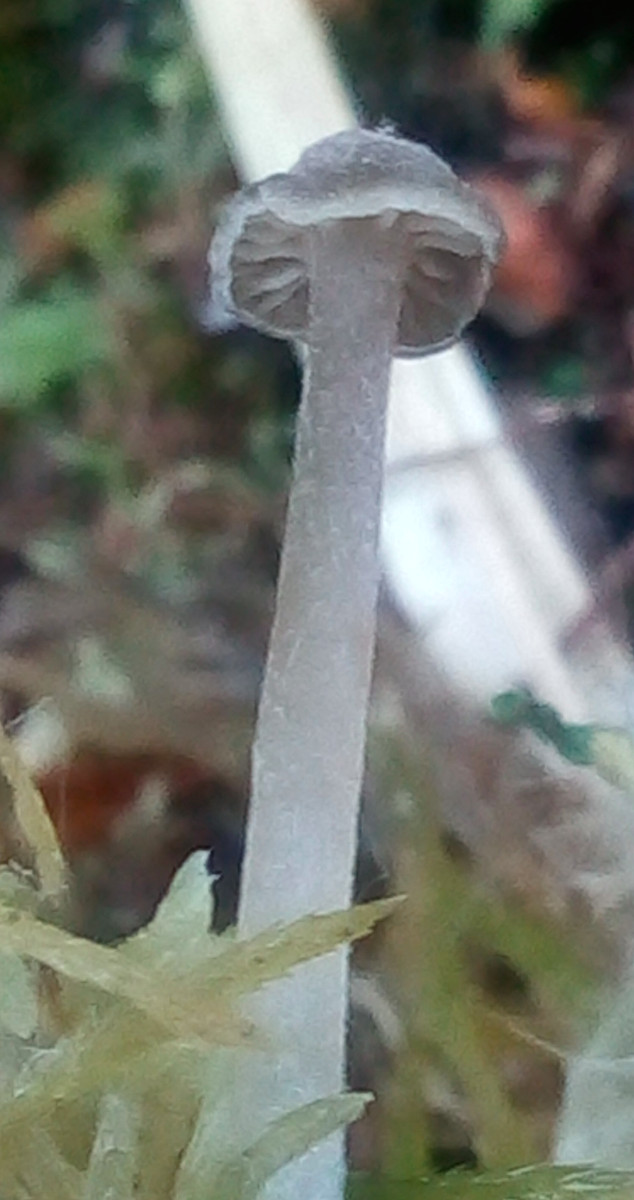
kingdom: Fungi
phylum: Basidiomycota
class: Agaricomycetes
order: Agaricales
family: Lyophyllaceae
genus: Sphagnurus
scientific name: Sphagnurus paluster
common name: tørvemos-gråblad
